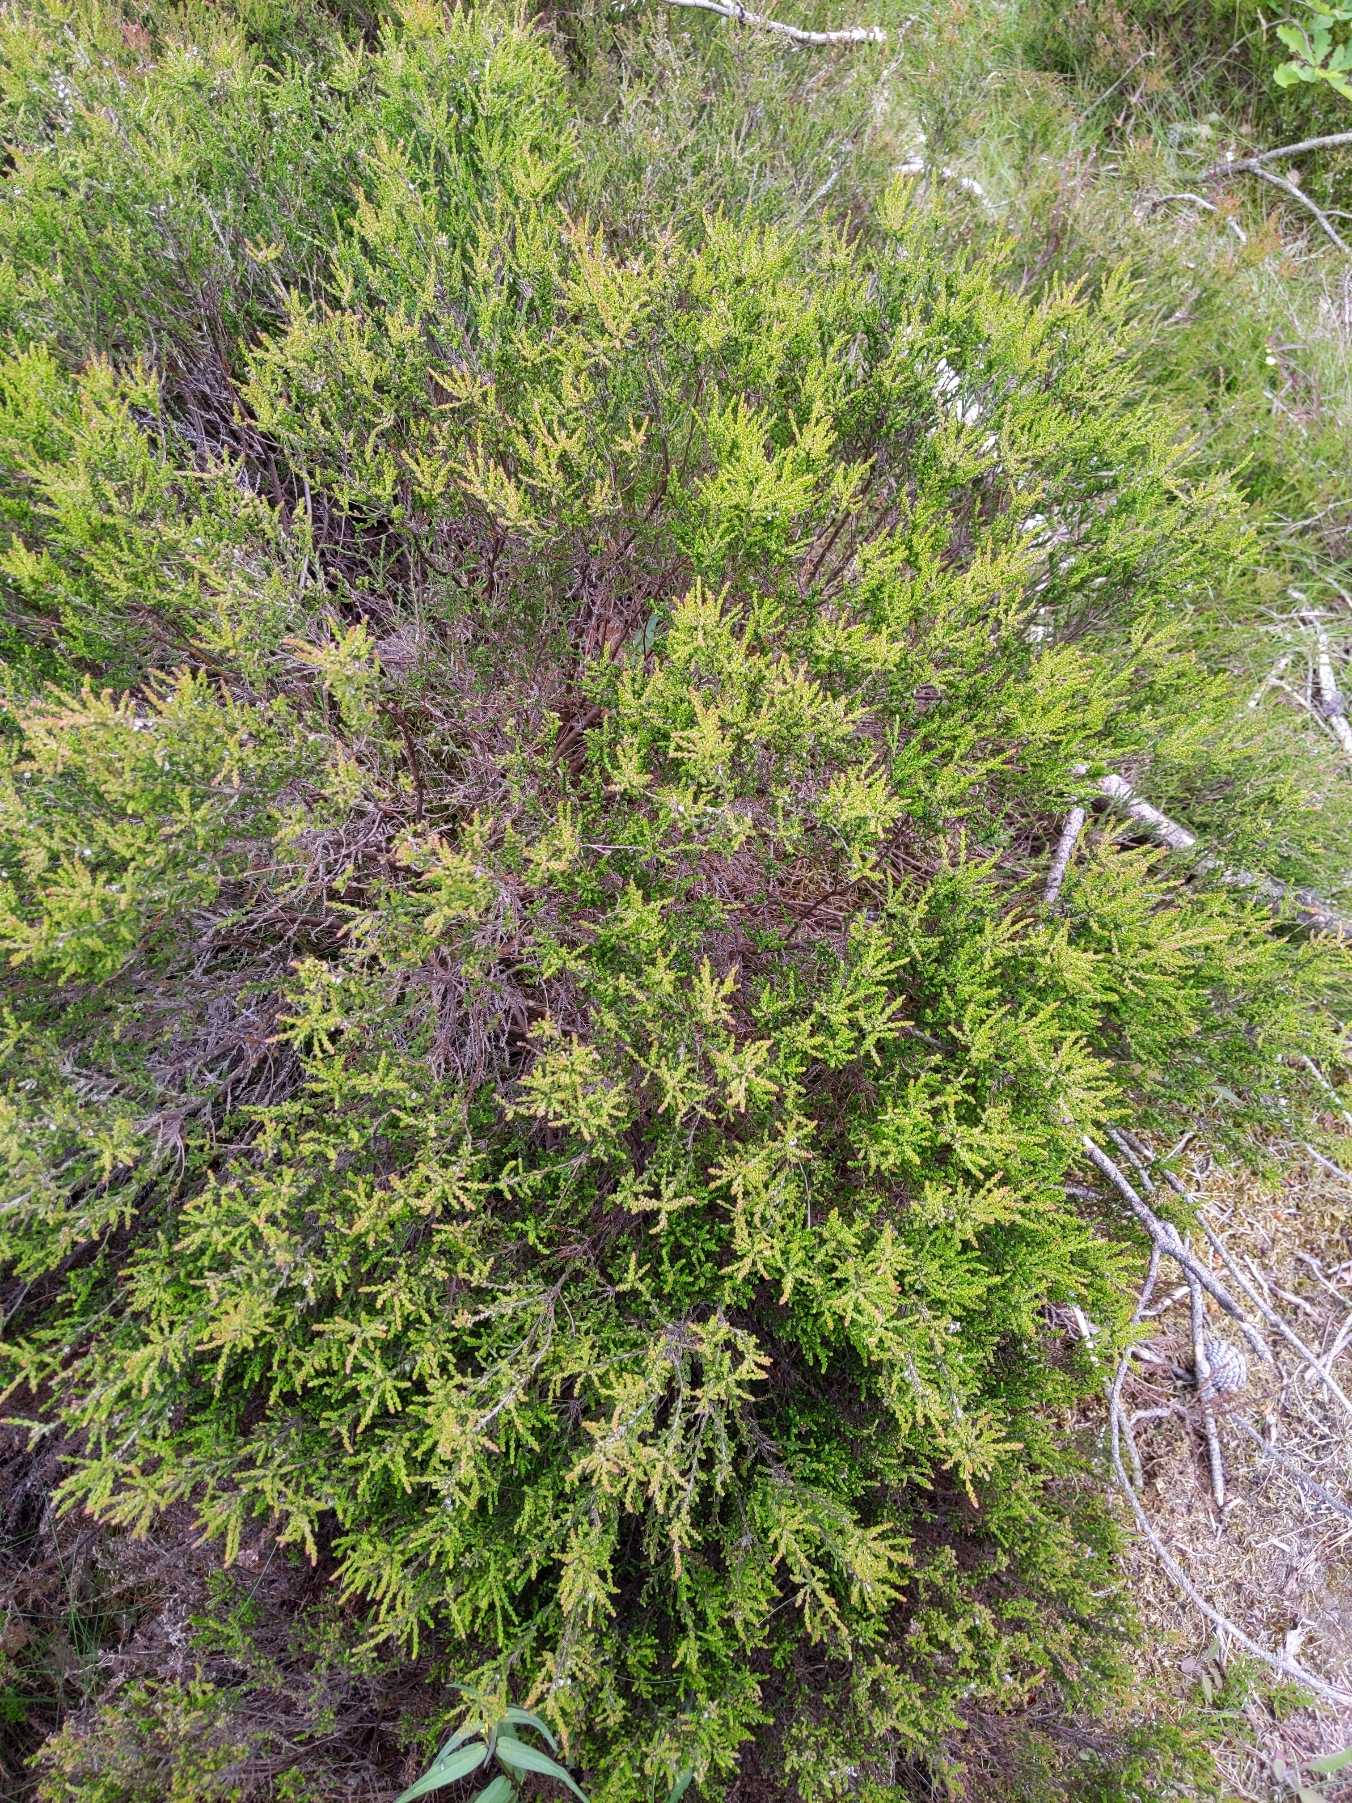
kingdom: Plantae
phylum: Tracheophyta
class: Magnoliopsida
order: Ericales
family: Ericaceae
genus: Calluna
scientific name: Calluna vulgaris
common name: Hedelyng
